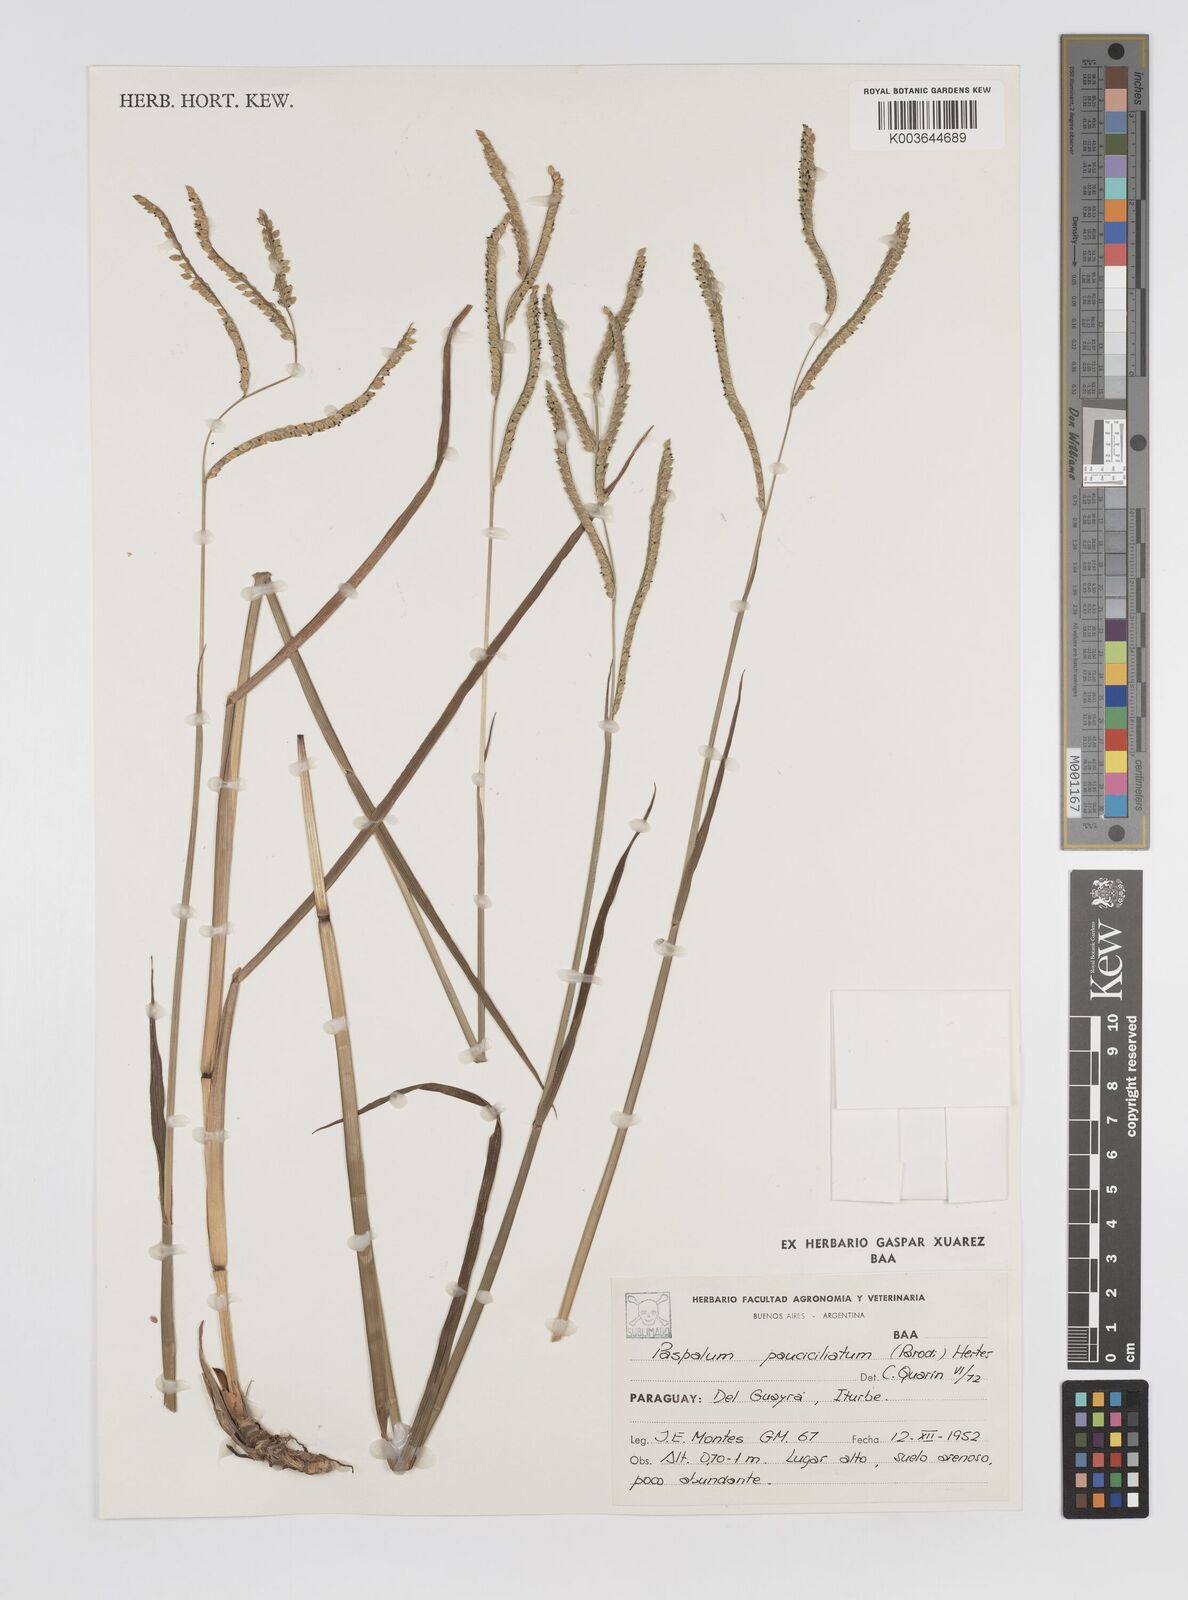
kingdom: Plantae
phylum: Tracheophyta
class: Liliopsida
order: Poales
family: Poaceae
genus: Paspalum
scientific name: Paspalum pauciciliatum
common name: Prostrate dallis grass
